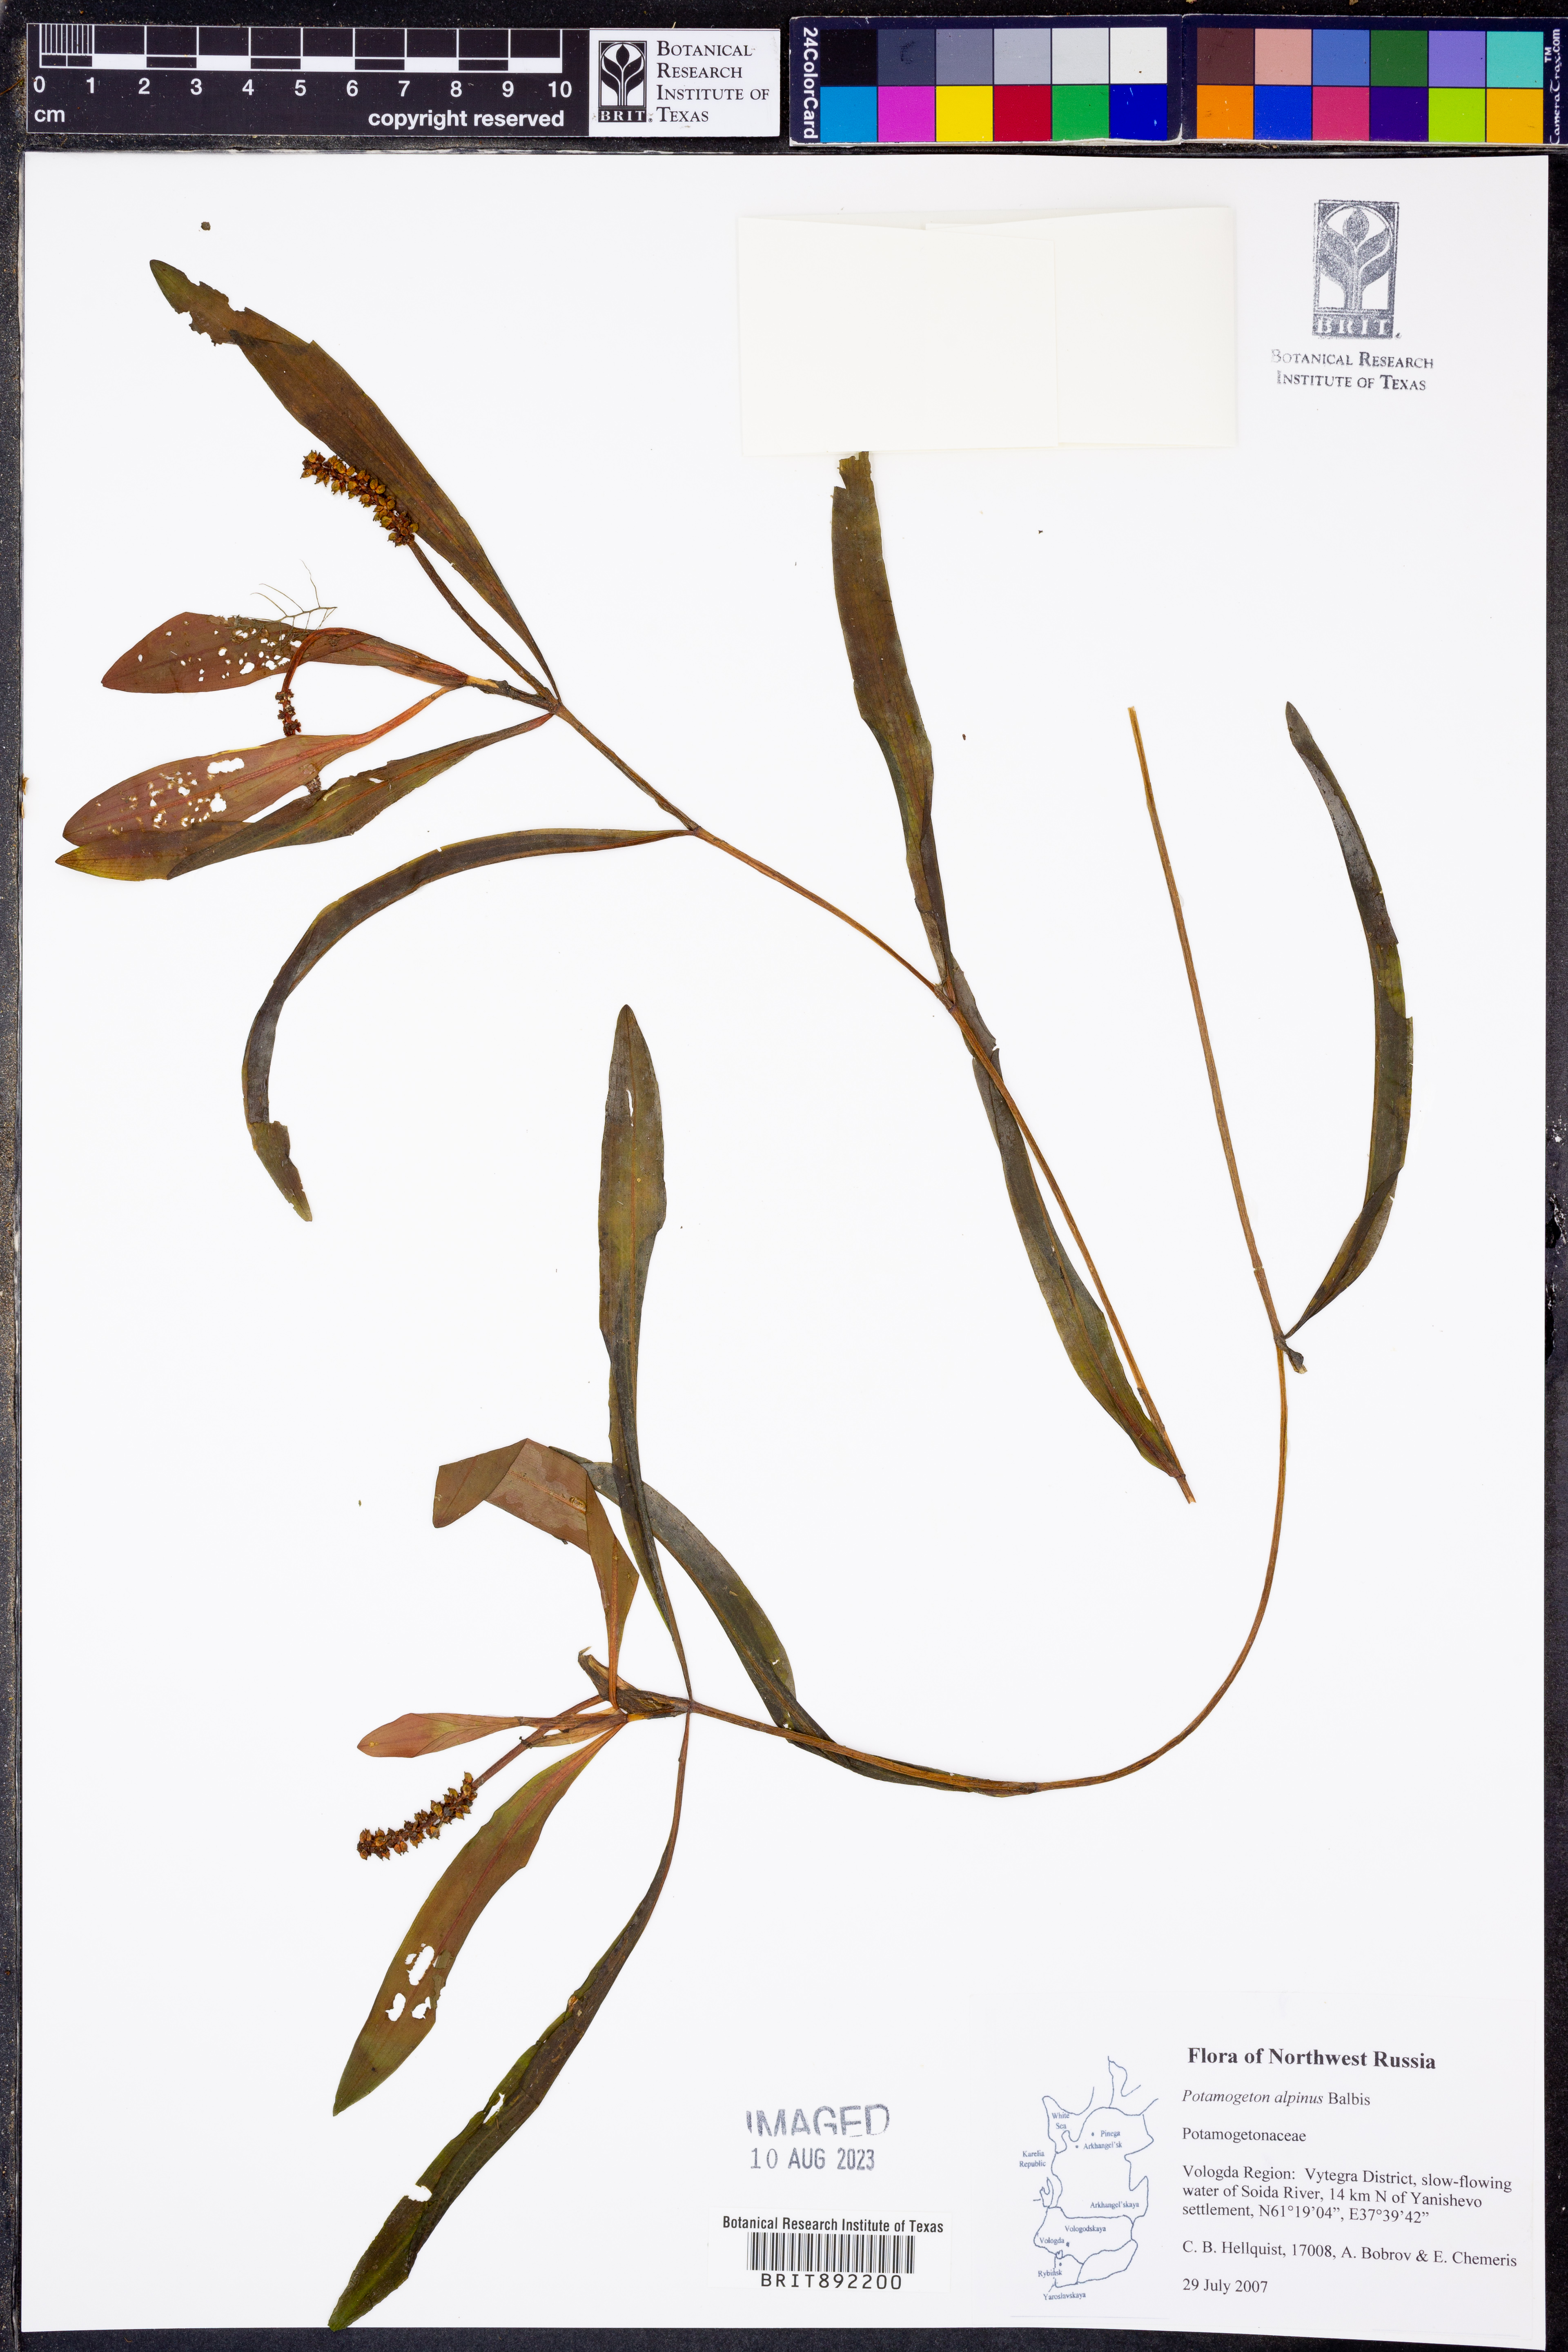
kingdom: Plantae
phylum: Tracheophyta
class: Liliopsida
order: Alismatales
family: Potamogetonaceae
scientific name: Potamogetonaceae
